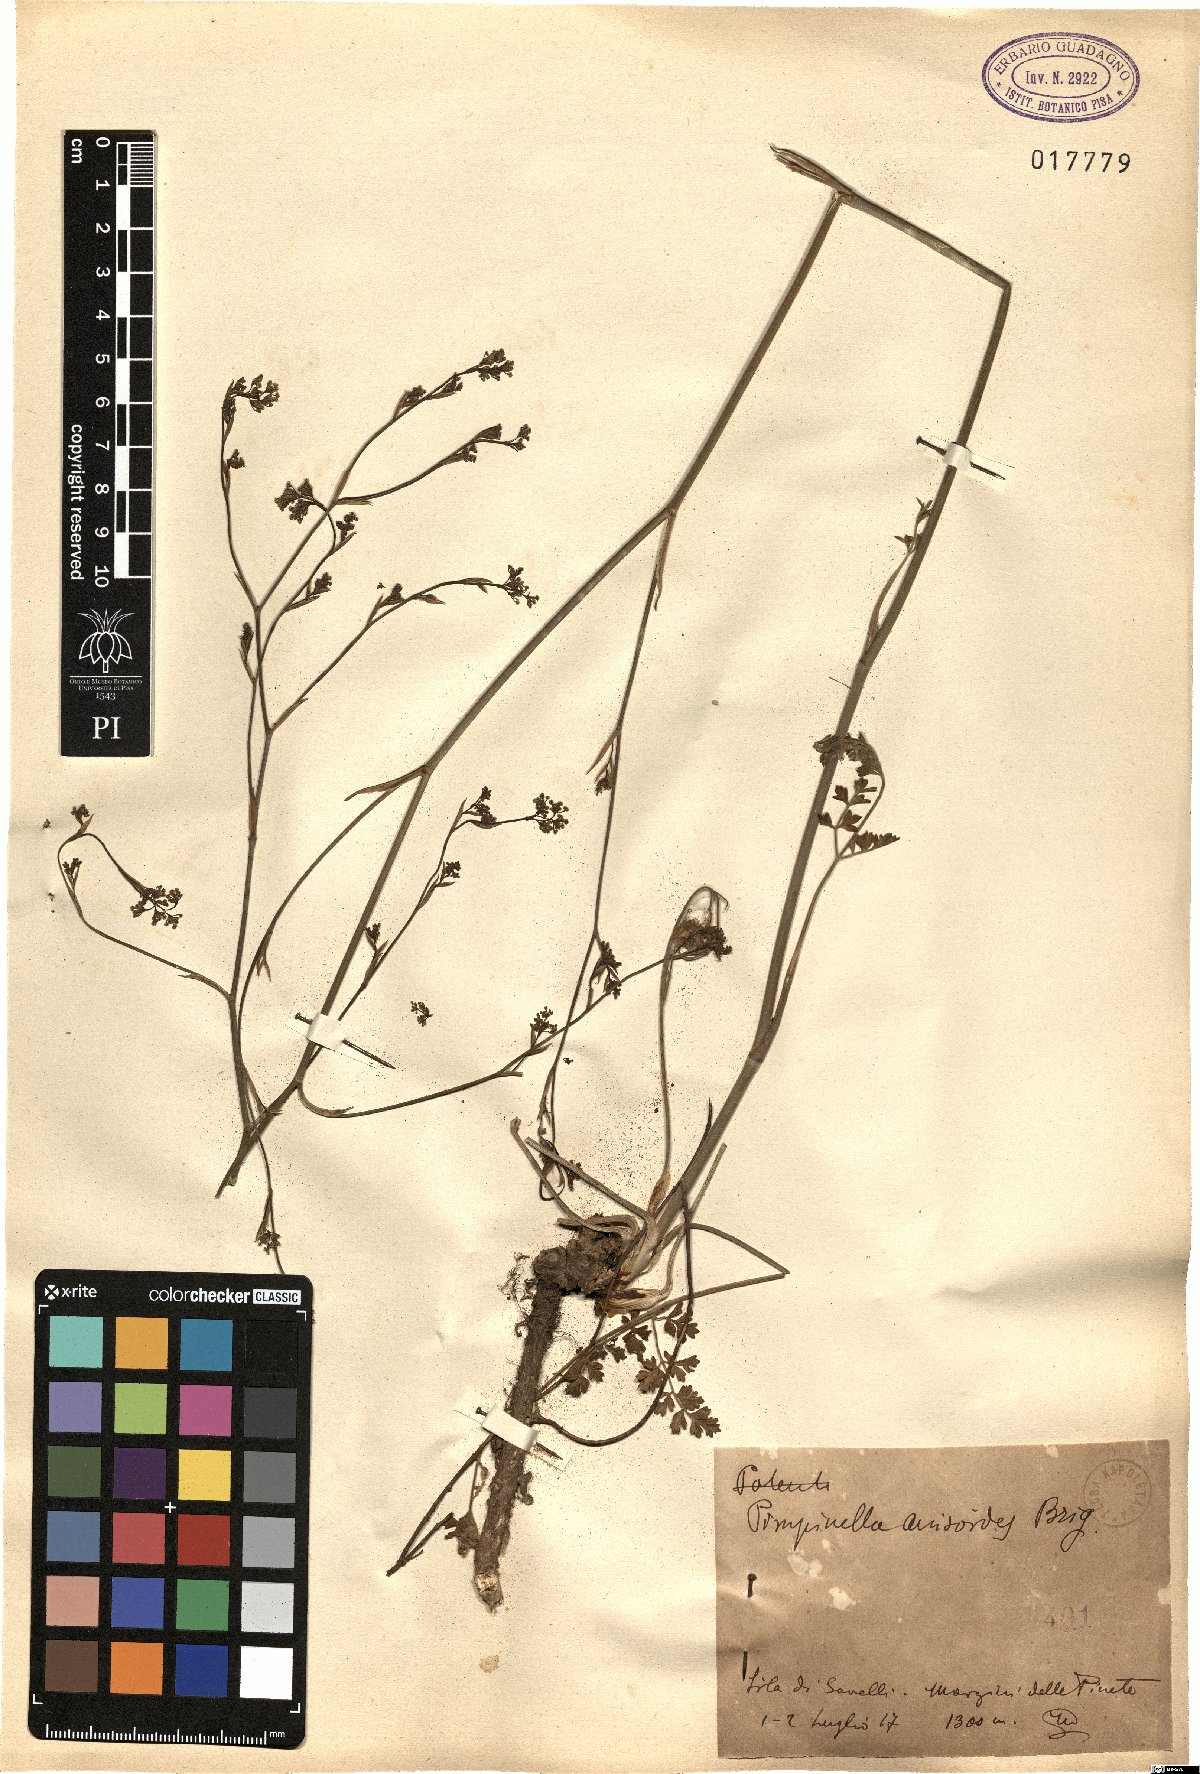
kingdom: Plantae
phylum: Tracheophyta
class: Magnoliopsida
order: Apiales
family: Apiaceae
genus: Pimpinella
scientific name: Pimpinella anisoides
